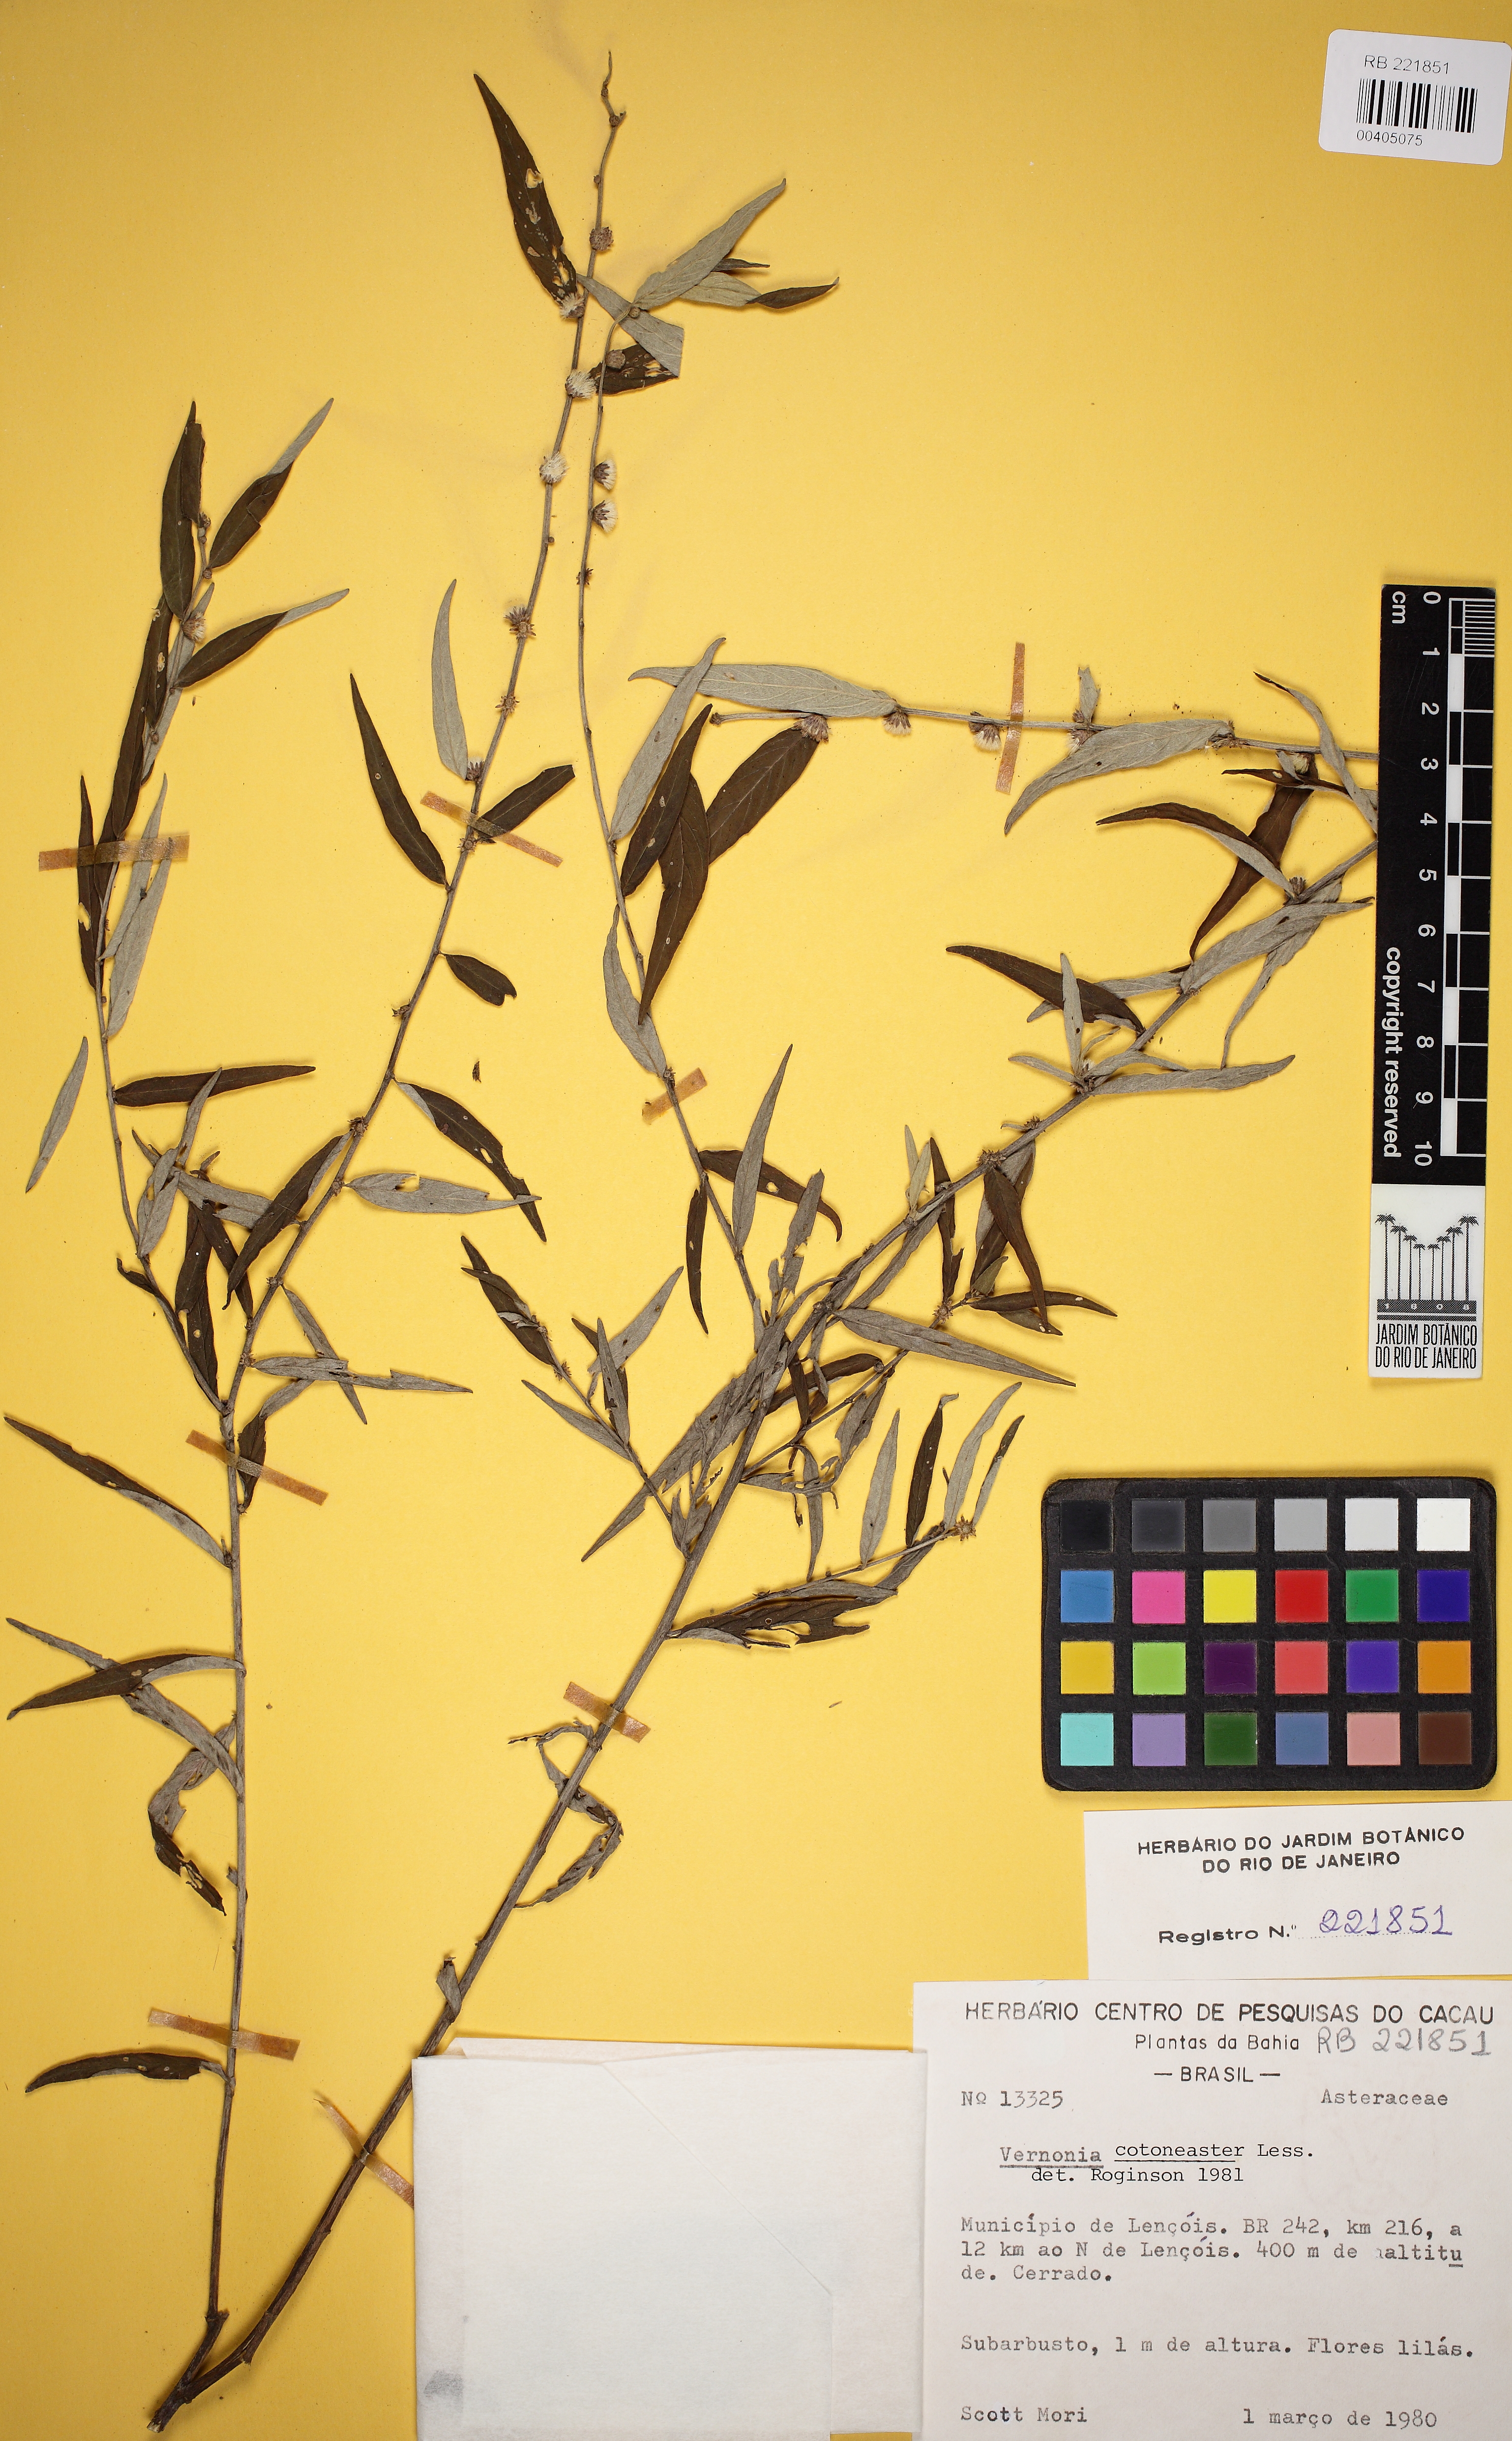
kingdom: Plantae
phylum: Tracheophyta
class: Magnoliopsida
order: Asterales
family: Asteraceae
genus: Lepidaploa
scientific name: Lepidaploa cotoneaster
